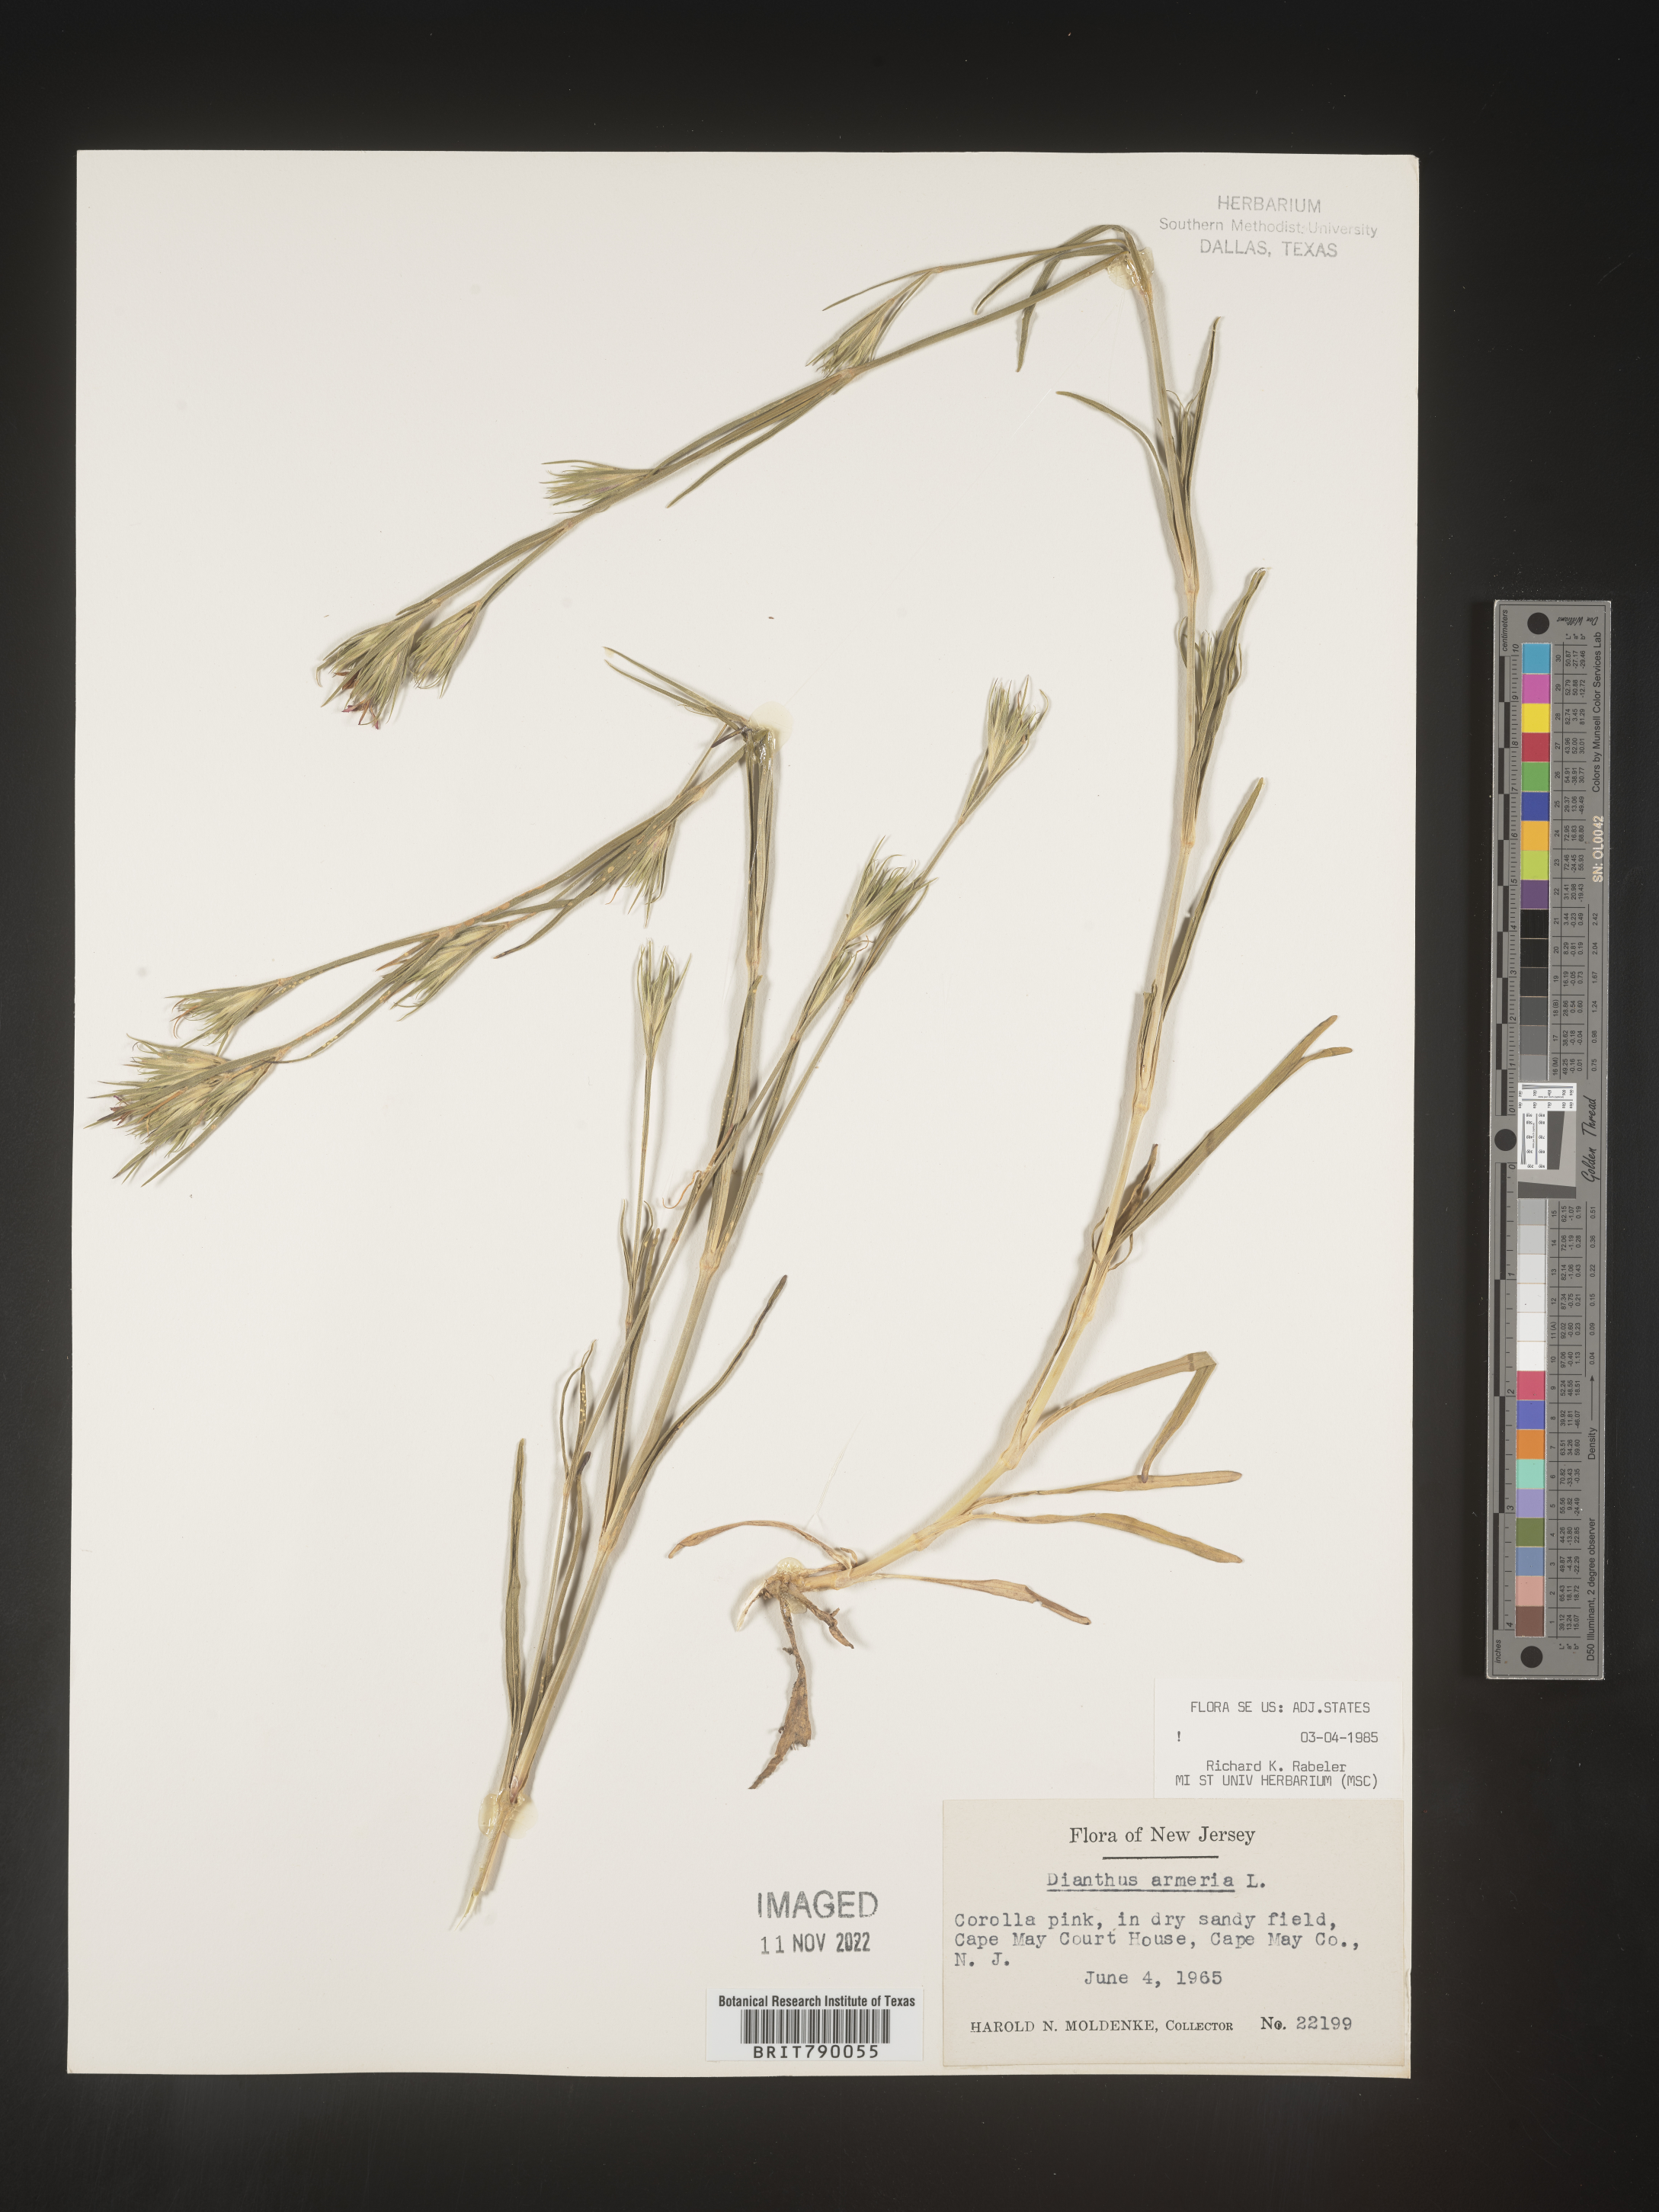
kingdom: Plantae
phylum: Tracheophyta
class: Magnoliopsida
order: Caryophyllales
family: Caryophyllaceae
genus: Dianthus
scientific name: Dianthus armeria
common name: Deptford pink
